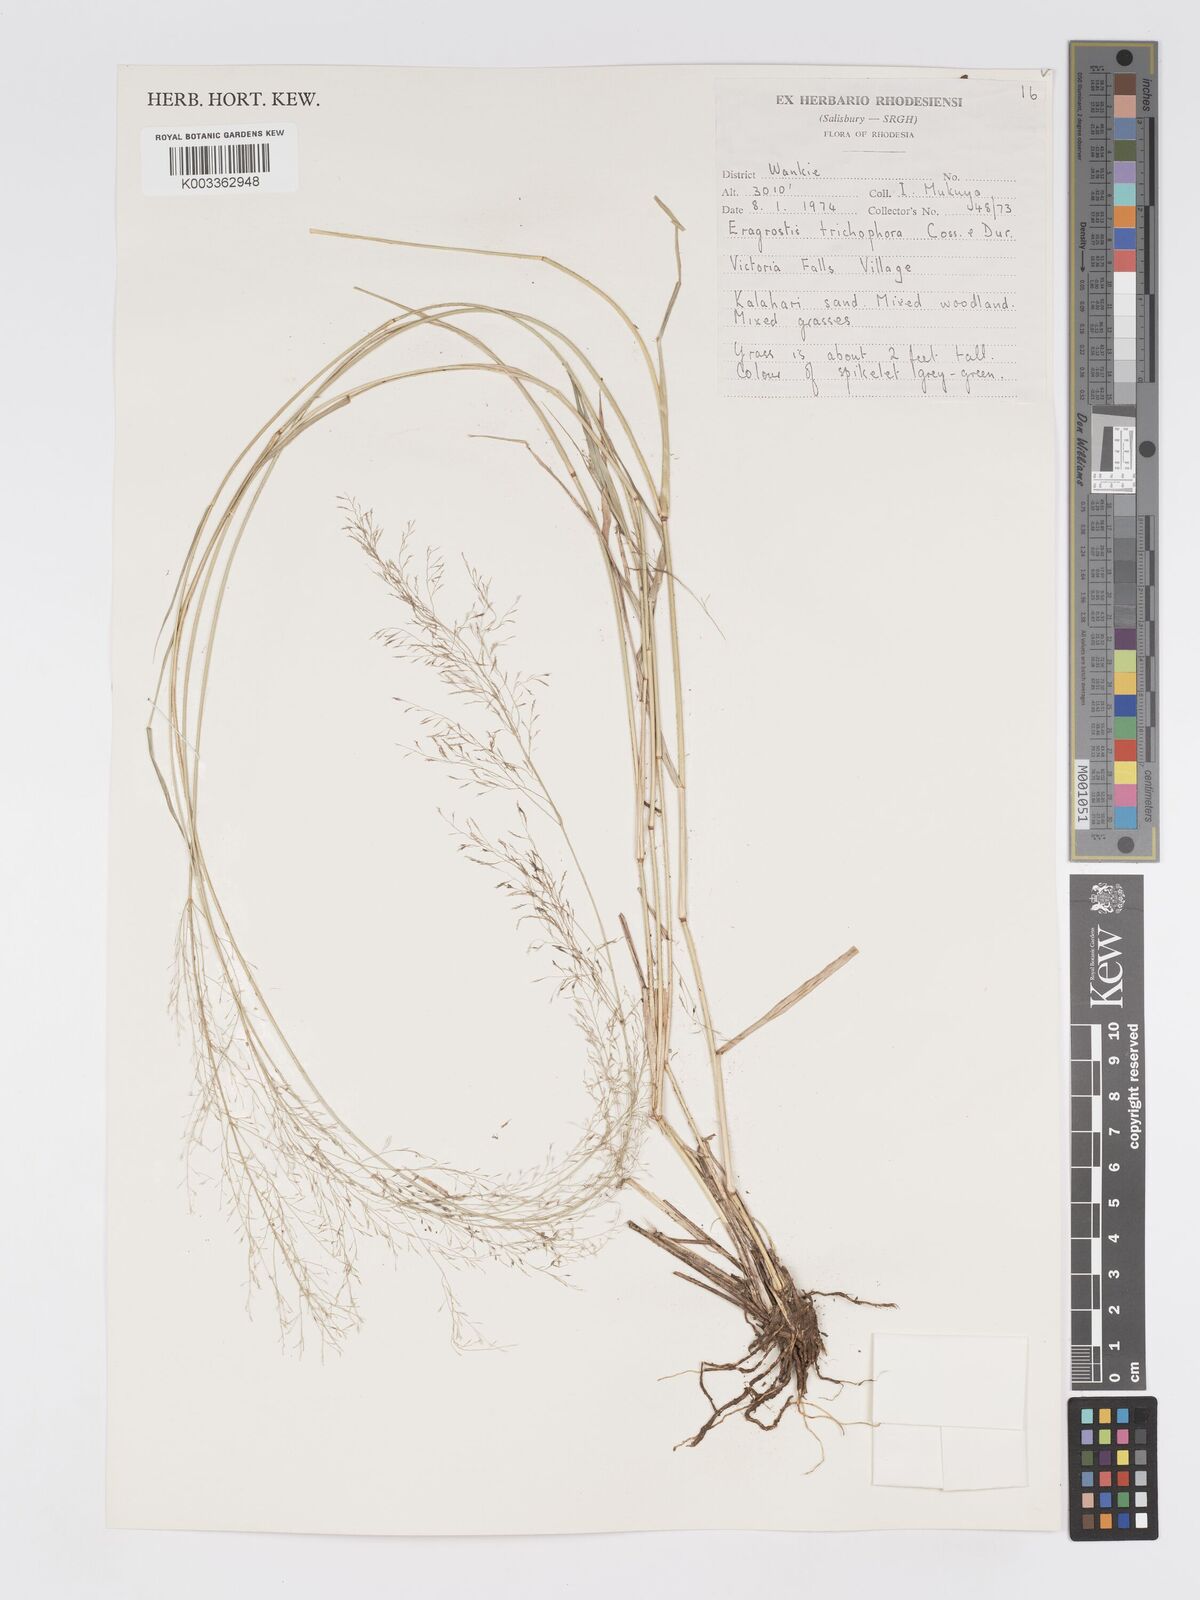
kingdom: Plantae
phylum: Tracheophyta
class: Liliopsida
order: Poales
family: Poaceae
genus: Eragrostis
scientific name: Eragrostis cylindriflora
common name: Cylinderflower lovegrass
